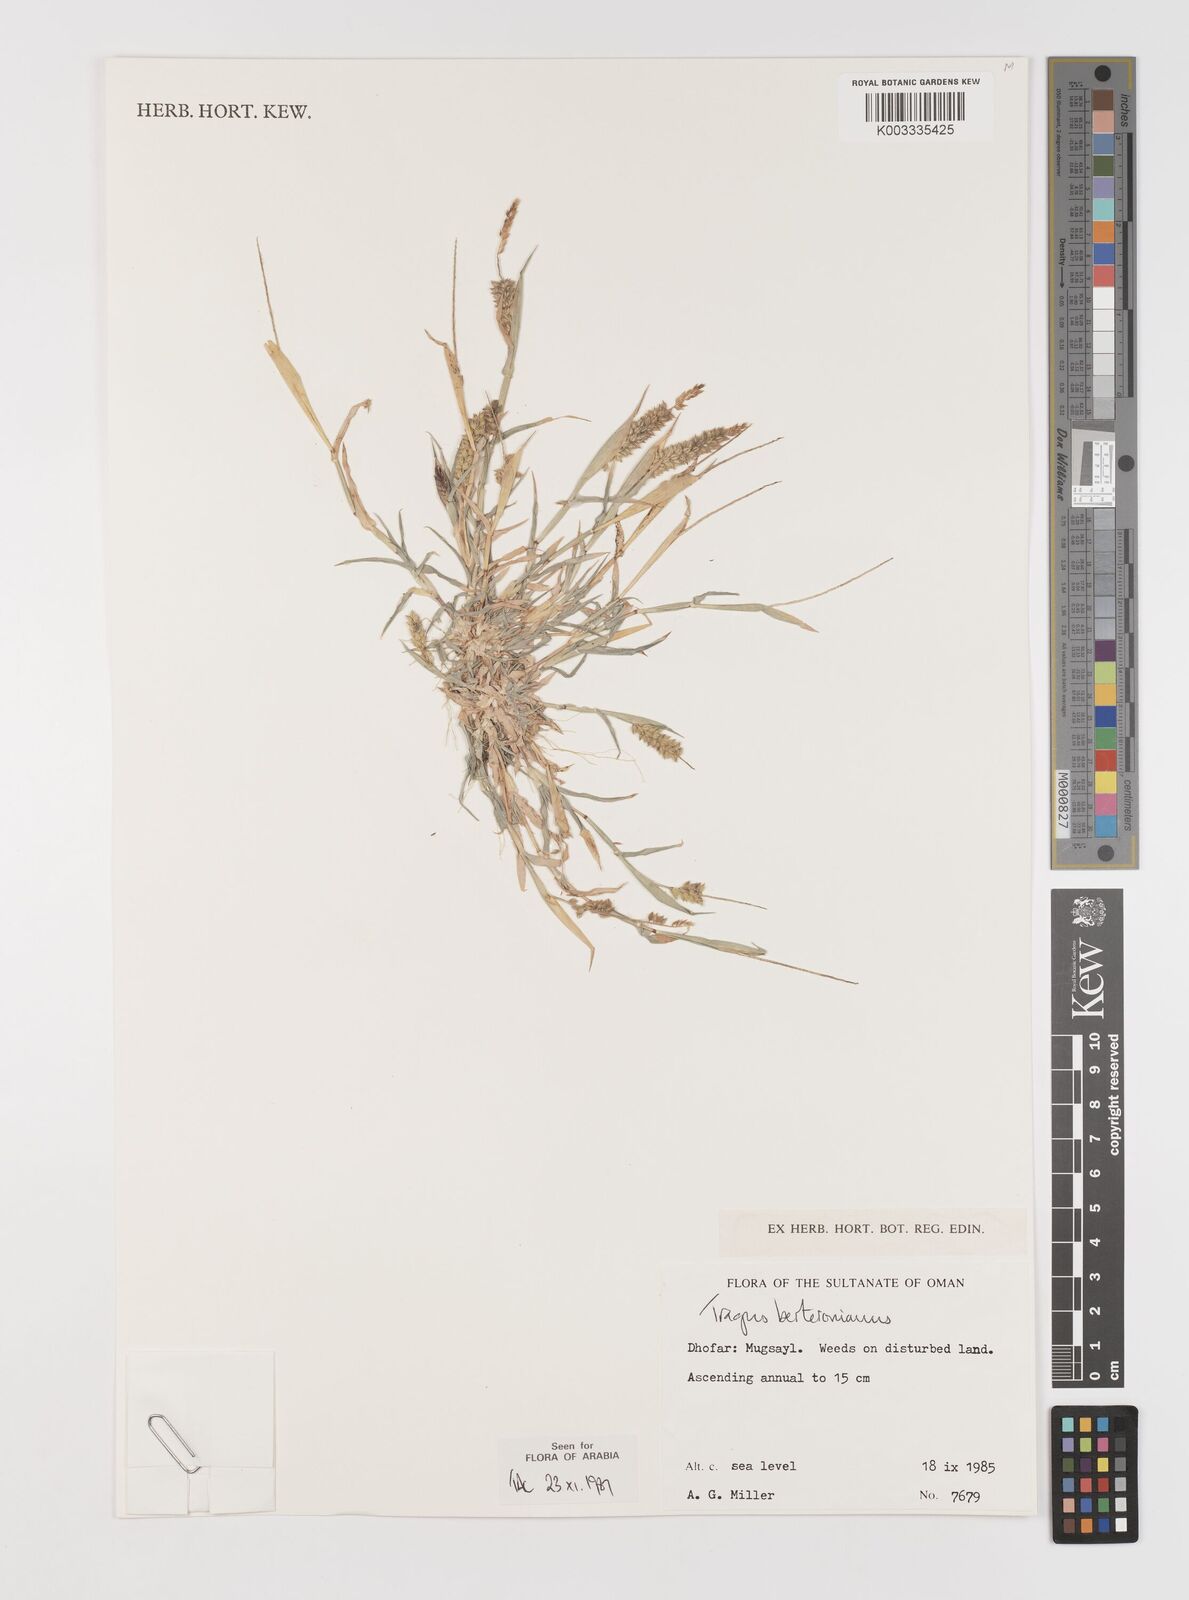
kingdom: Plantae
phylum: Tracheophyta
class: Liliopsida
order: Poales
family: Poaceae
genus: Tragus
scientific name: Tragus berteronianus
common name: African bur-grass
